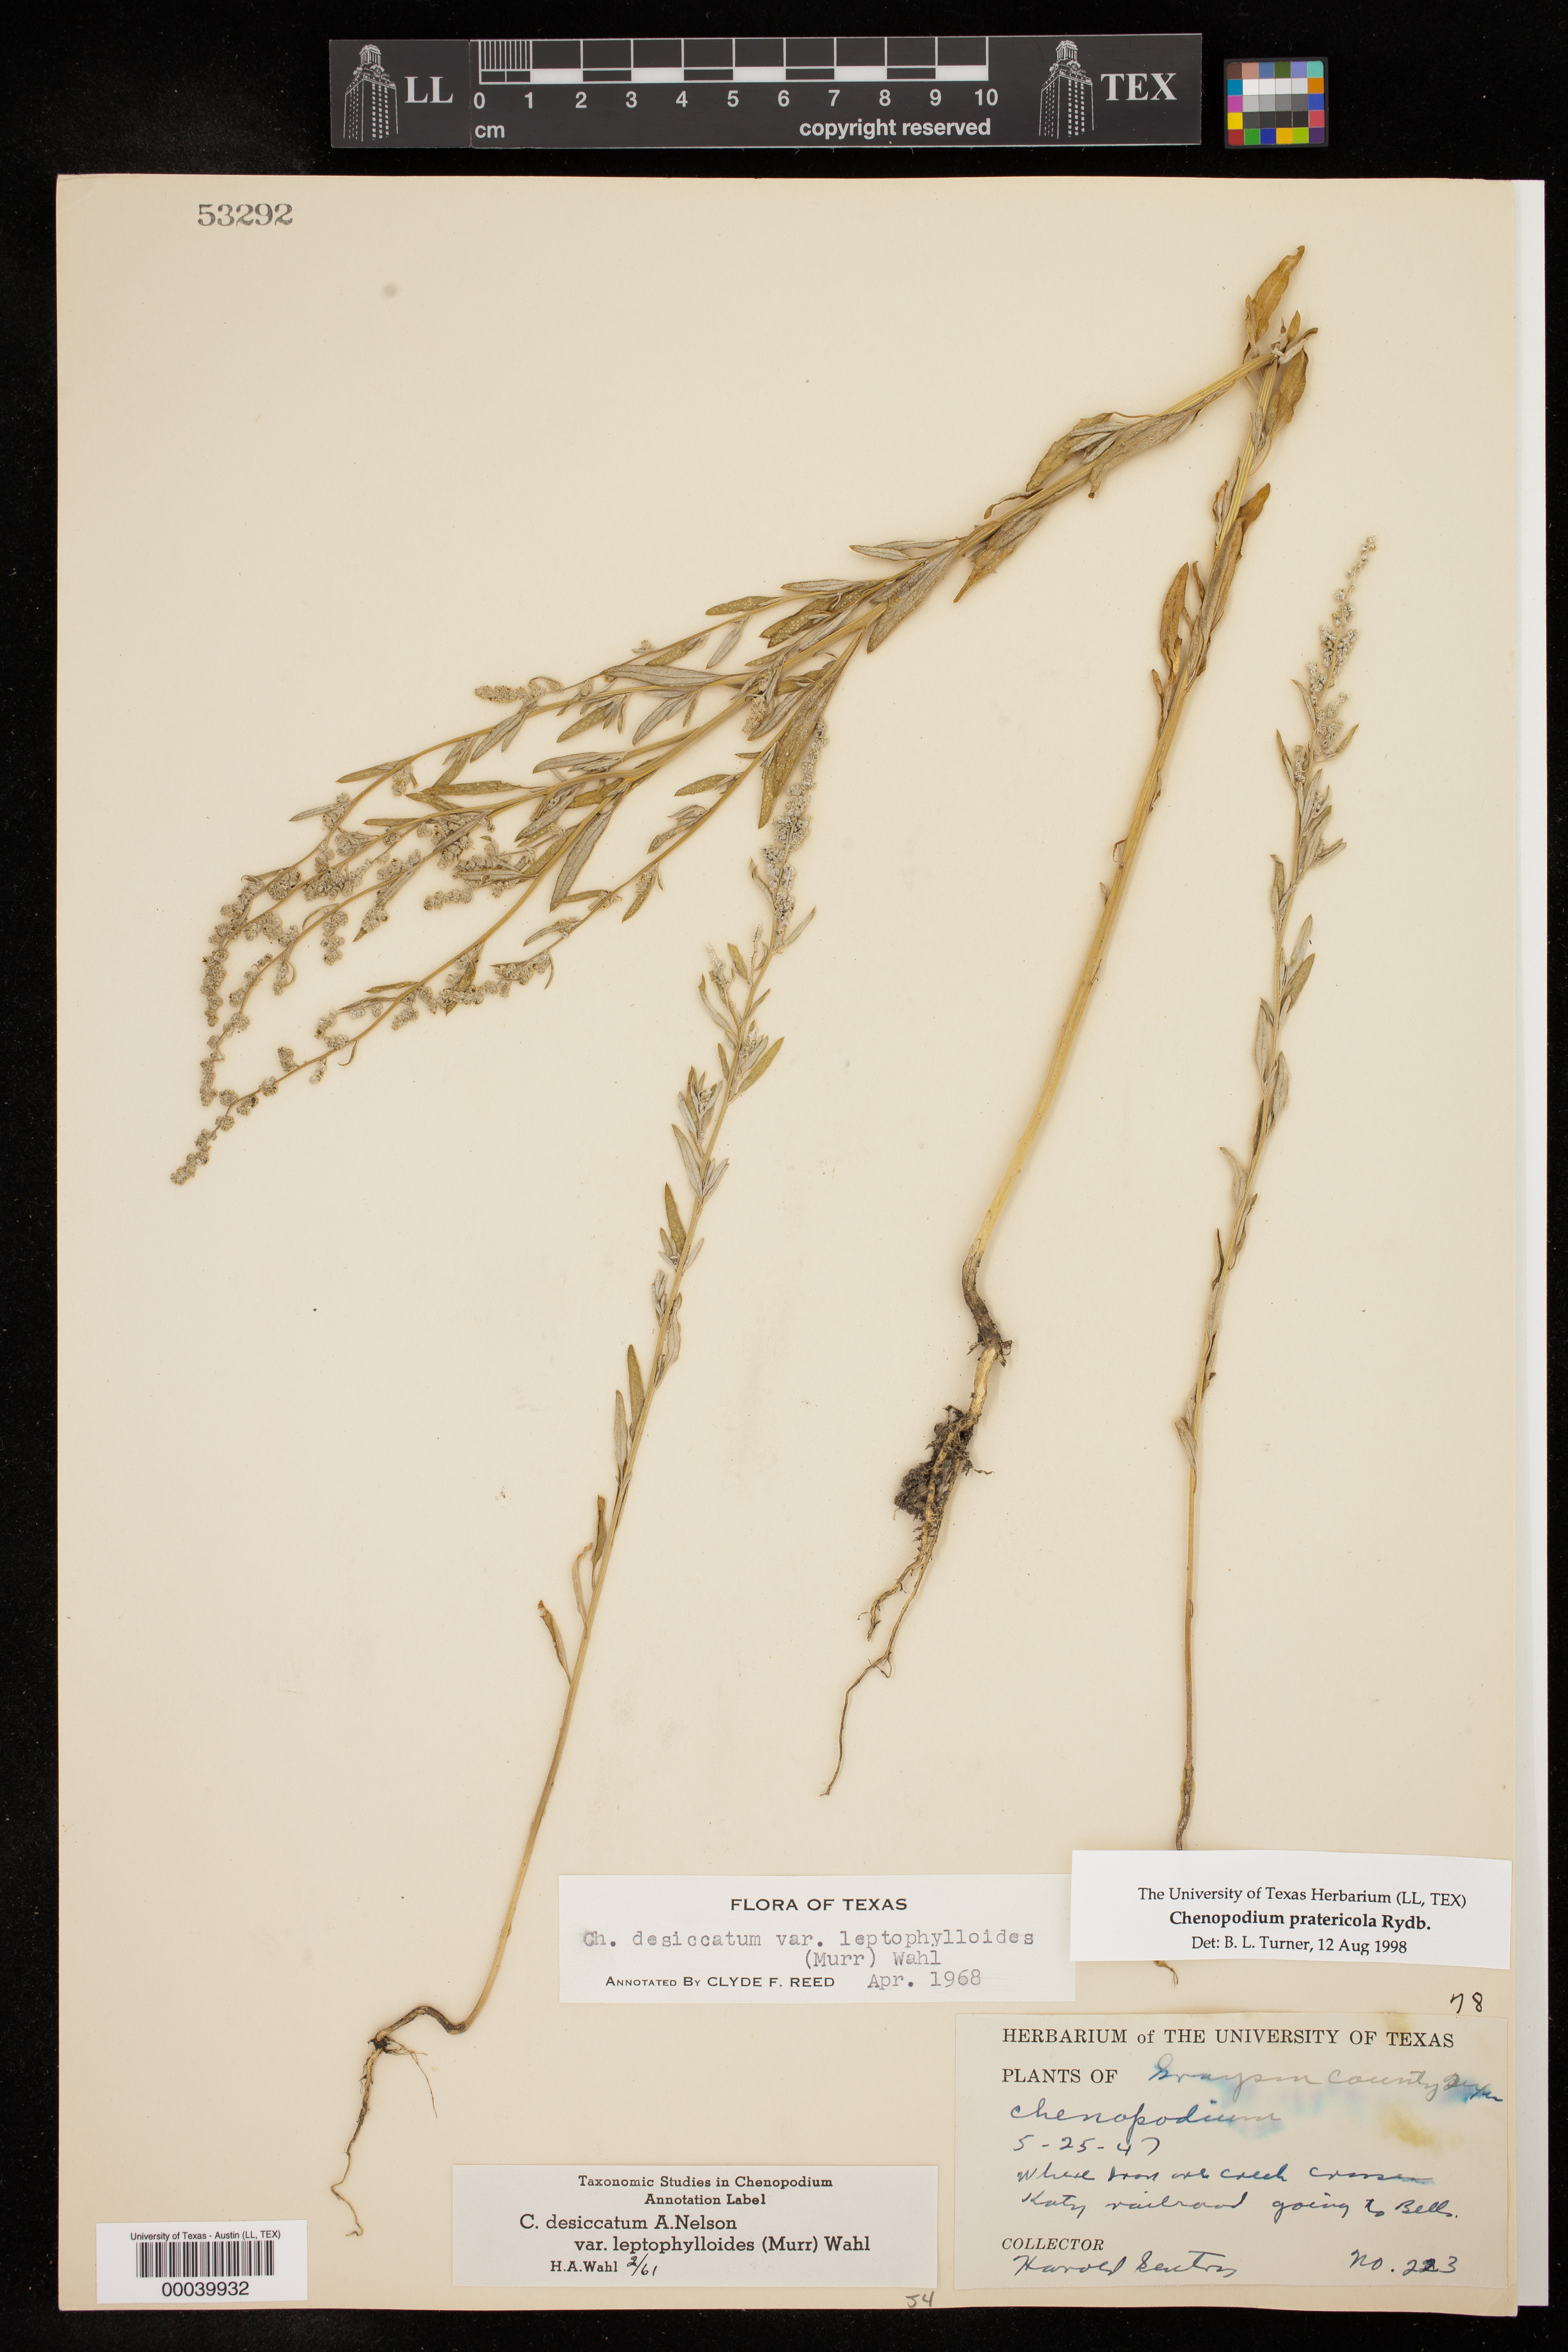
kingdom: Plantae
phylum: Tracheophyta
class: Magnoliopsida
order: Caryophyllales
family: Amaranthaceae
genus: Chenopodium
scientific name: Chenopodium pratericola
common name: Desert goosefoot
